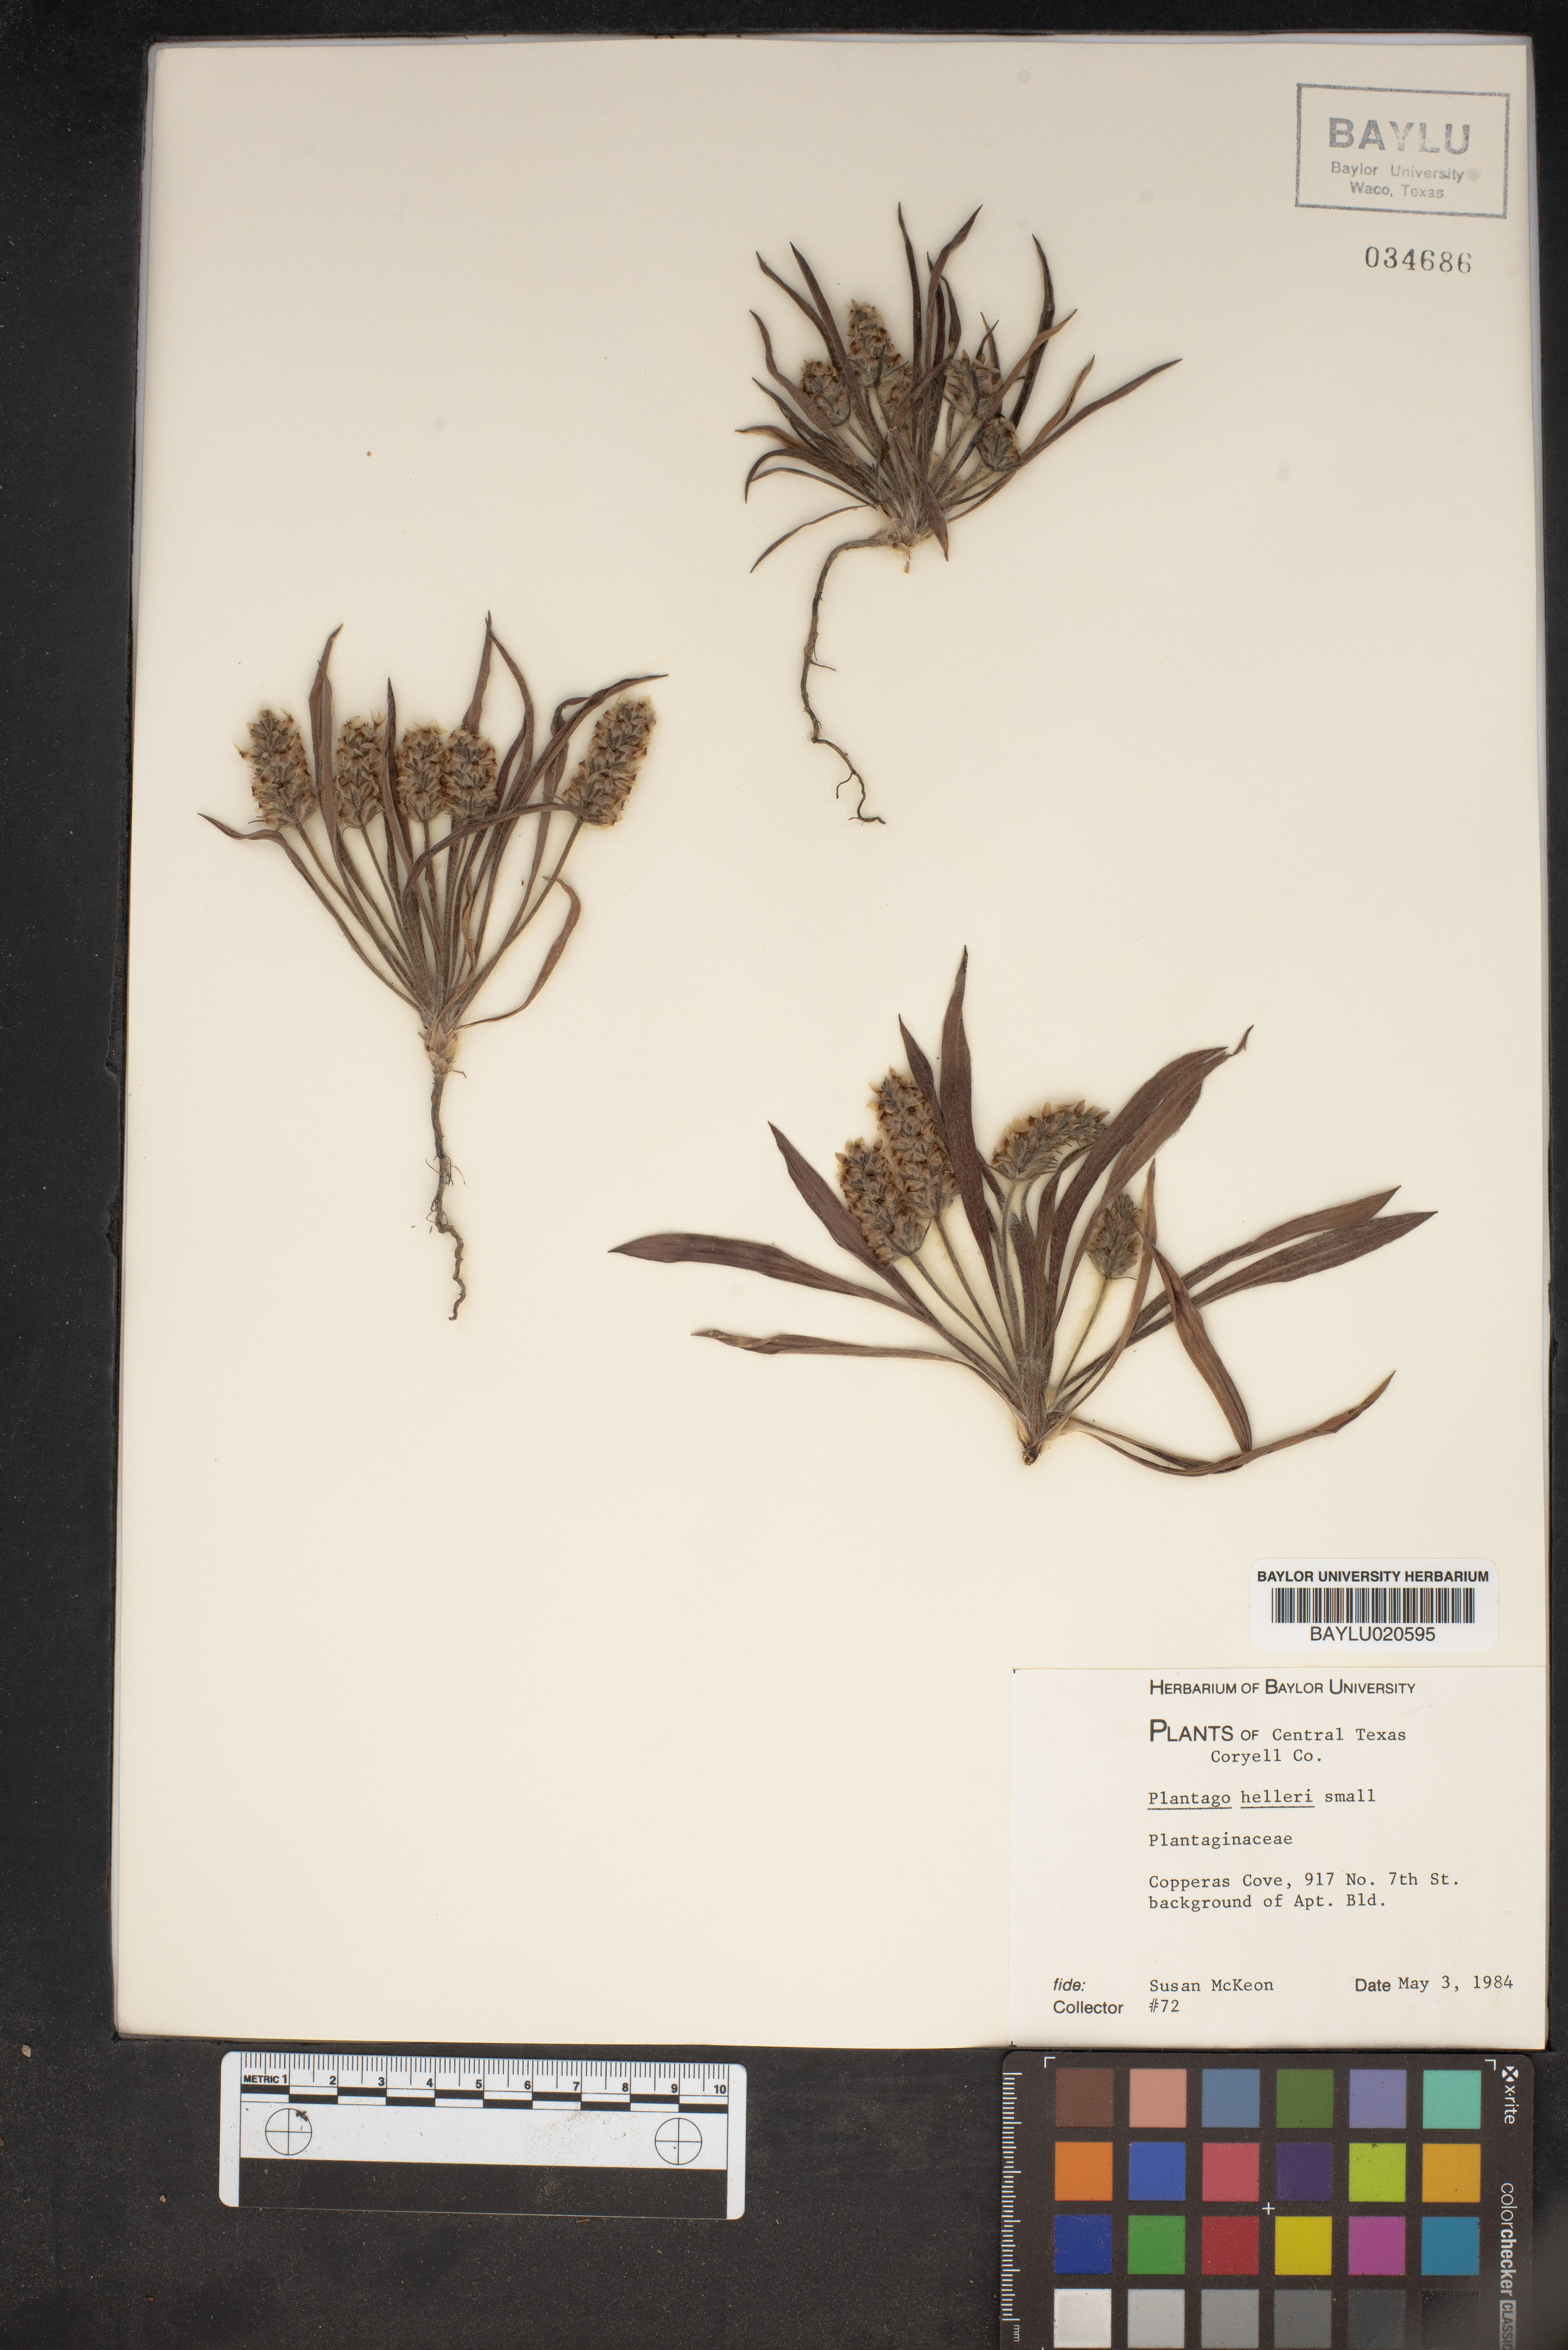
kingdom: Plantae
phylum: Tracheophyta
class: Magnoliopsida
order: Lamiales
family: Plantaginaceae
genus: Plantago
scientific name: Plantago helleri
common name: Heller's plantain
